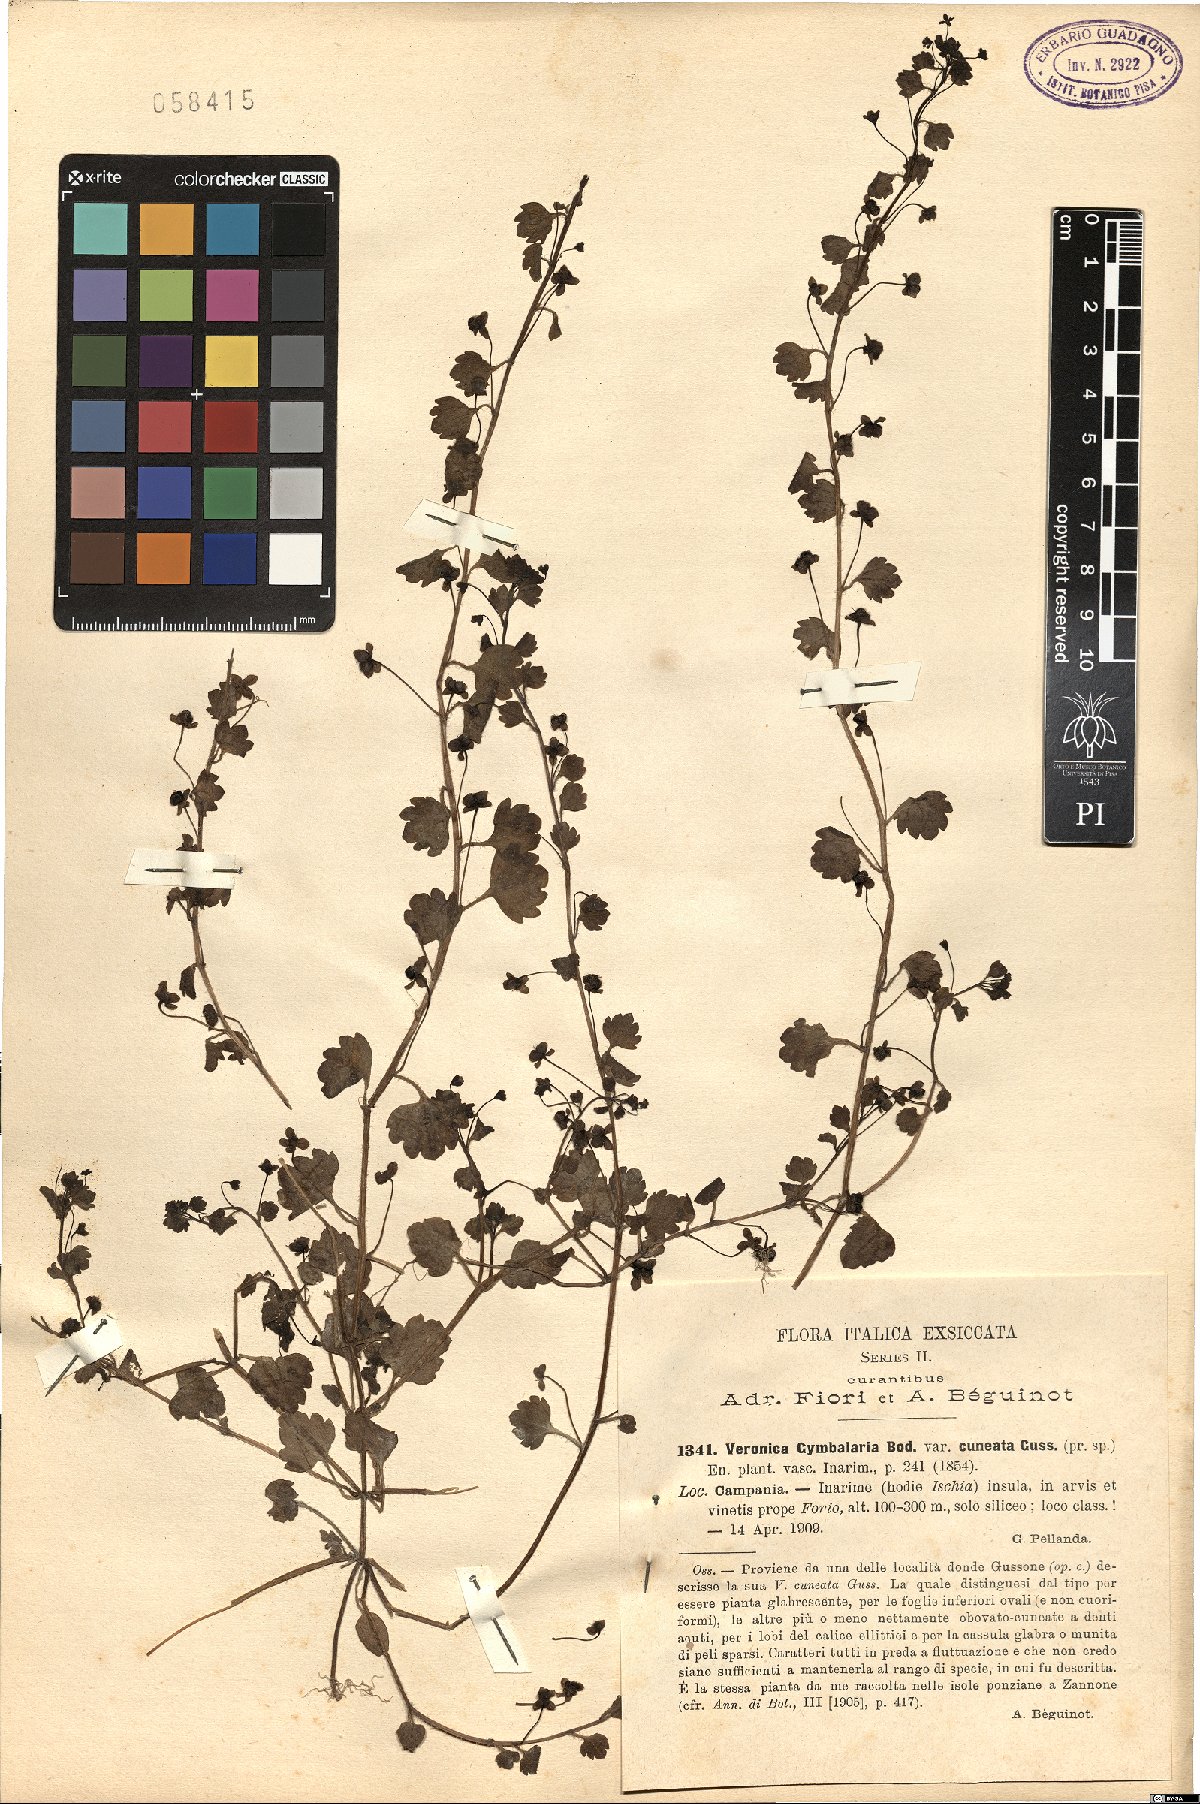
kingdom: Plantae
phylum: Tracheophyta
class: Magnoliopsida
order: Lamiales
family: Plantaginaceae
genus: Veronica
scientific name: Veronica cymbalaria
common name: Pale speedwell
